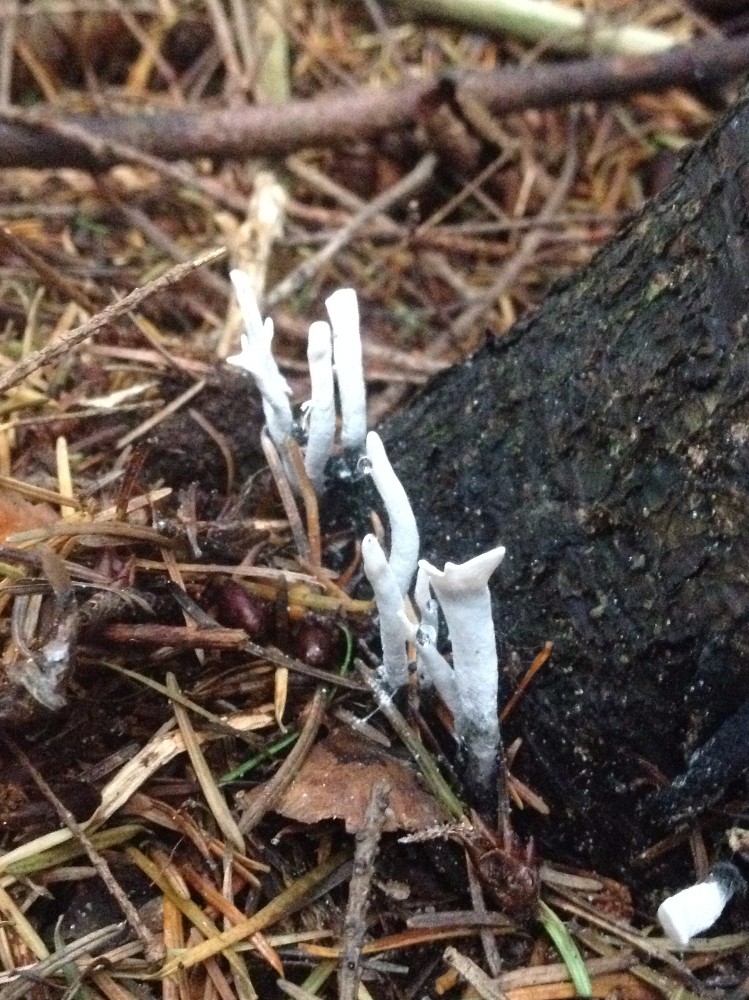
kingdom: Fungi
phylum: Ascomycota
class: Sordariomycetes
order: Xylariales
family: Xylariaceae
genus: Xylaria
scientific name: Xylaria hypoxylon
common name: grenet stødsvamp
